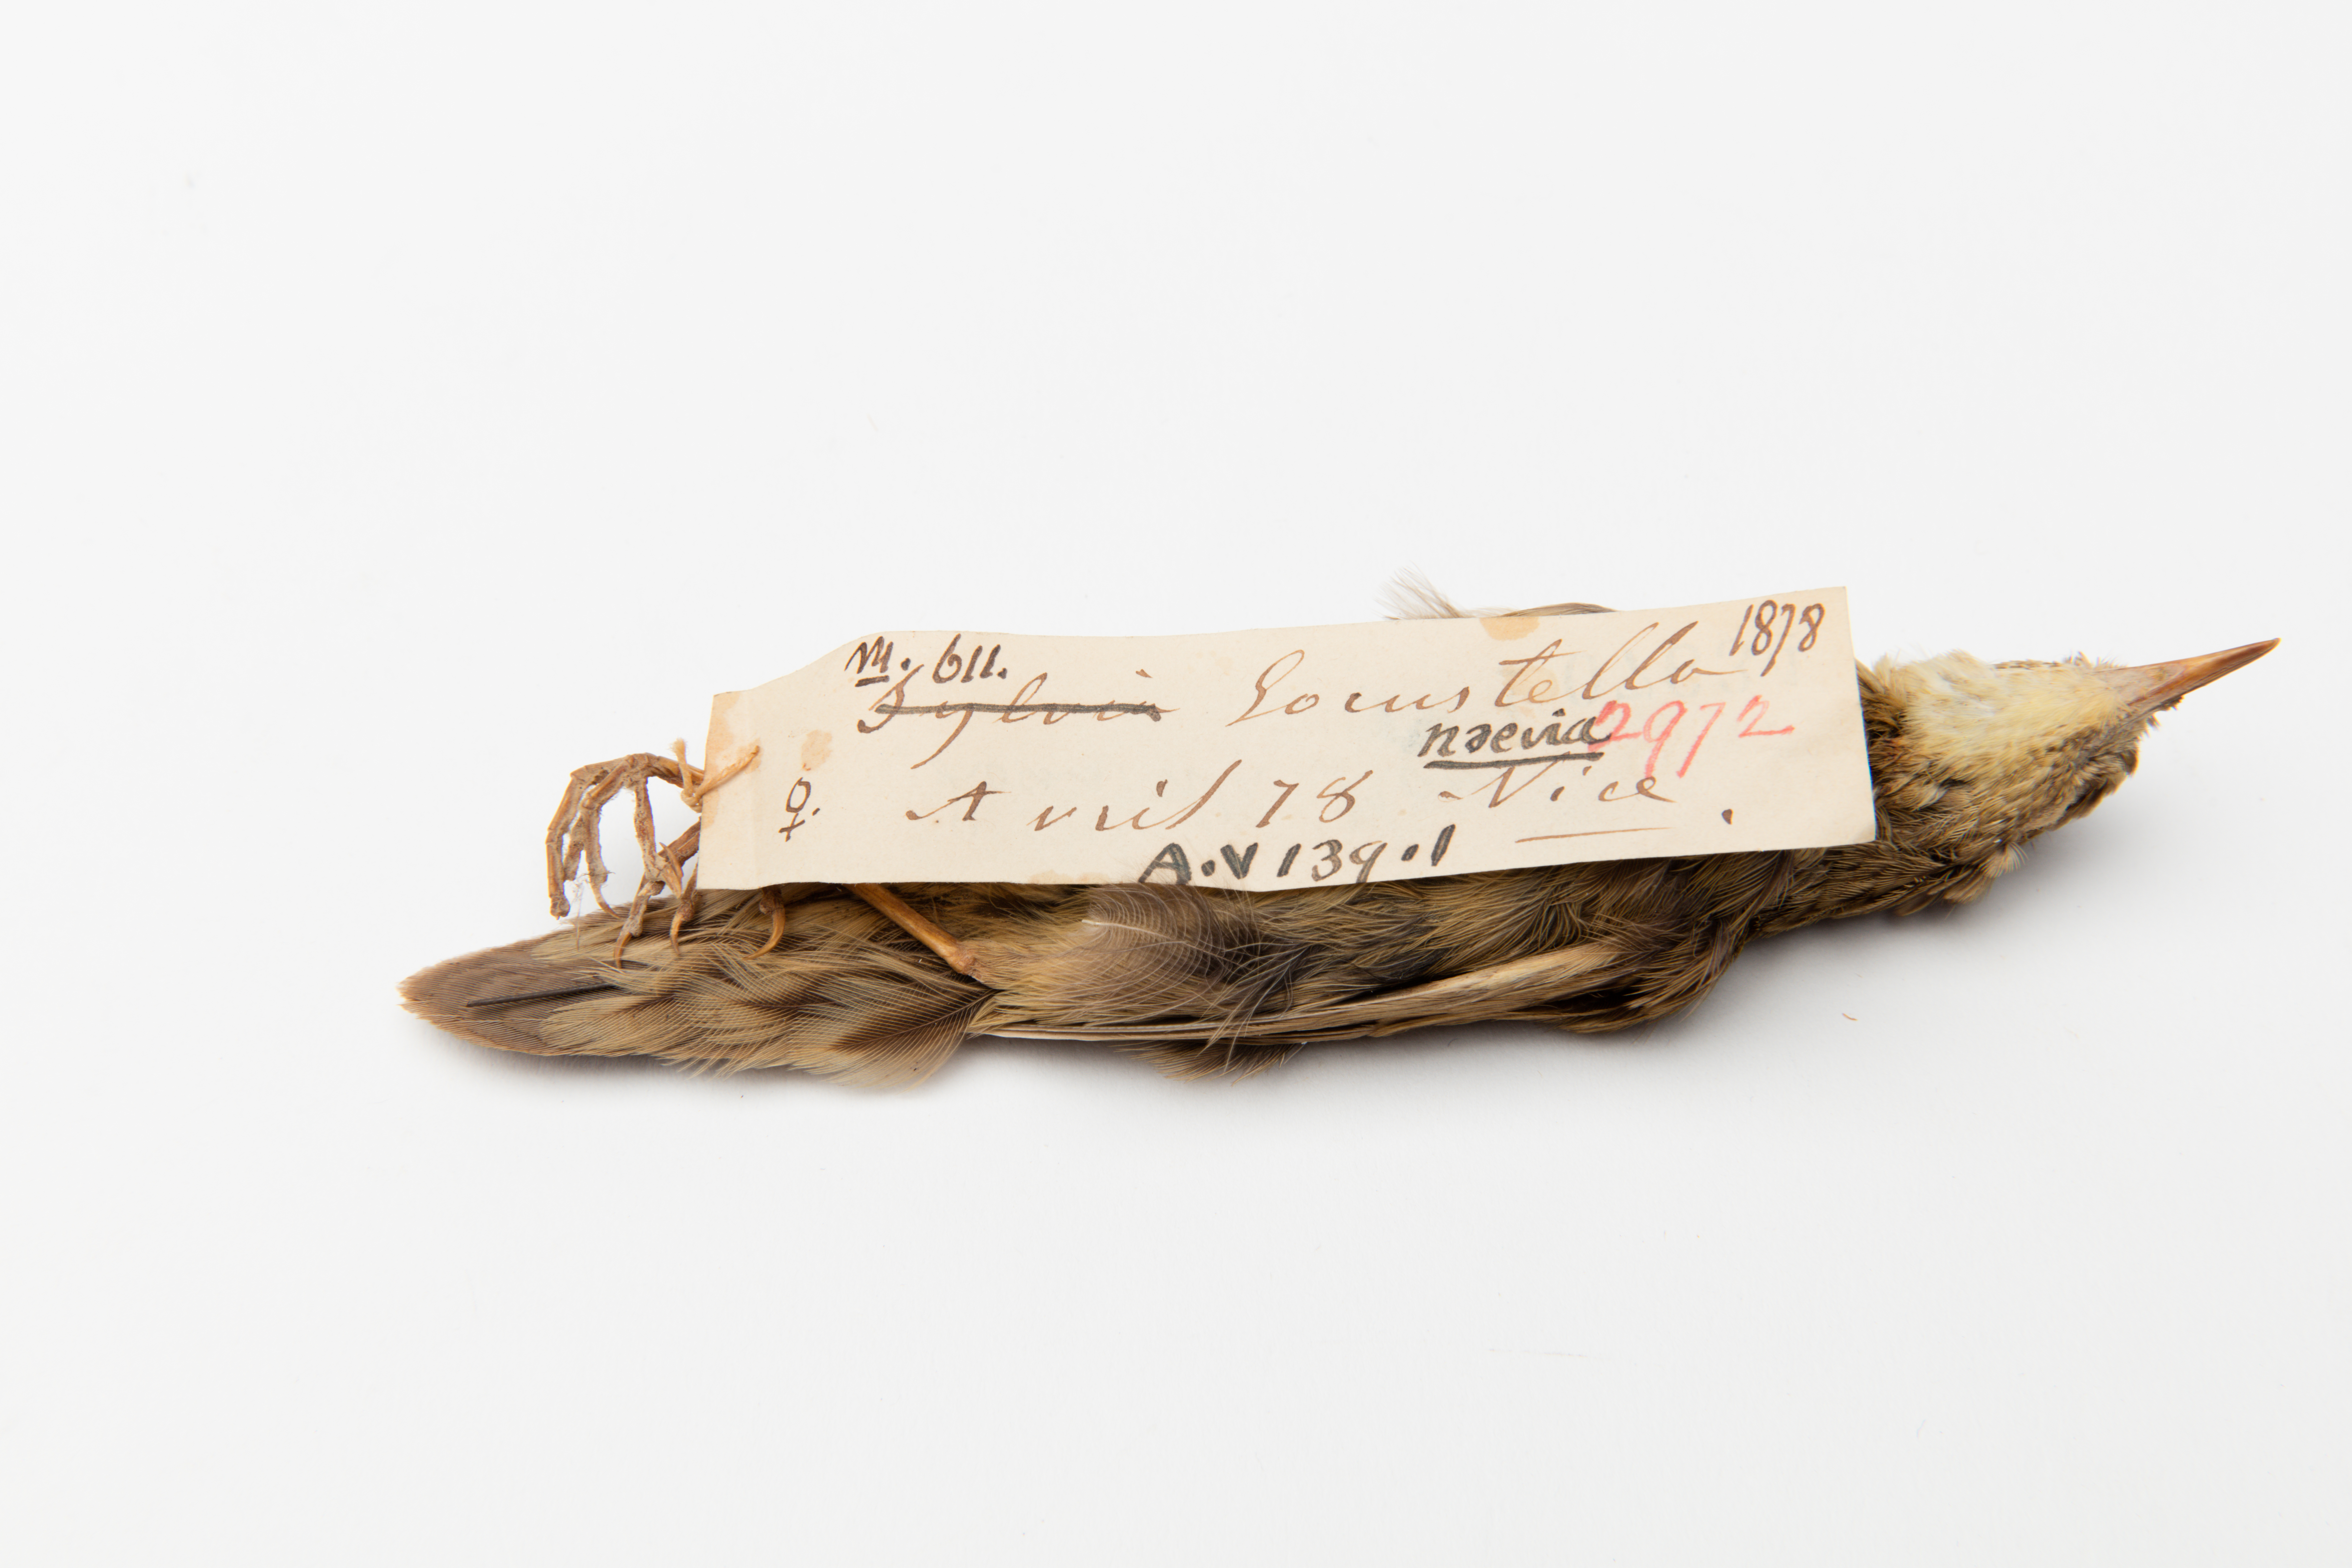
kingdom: Animalia
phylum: Chordata
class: Aves
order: Passeriformes
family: Locustellidae
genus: Locustella
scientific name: Locustella naevia
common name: Common grasshopper warbler
